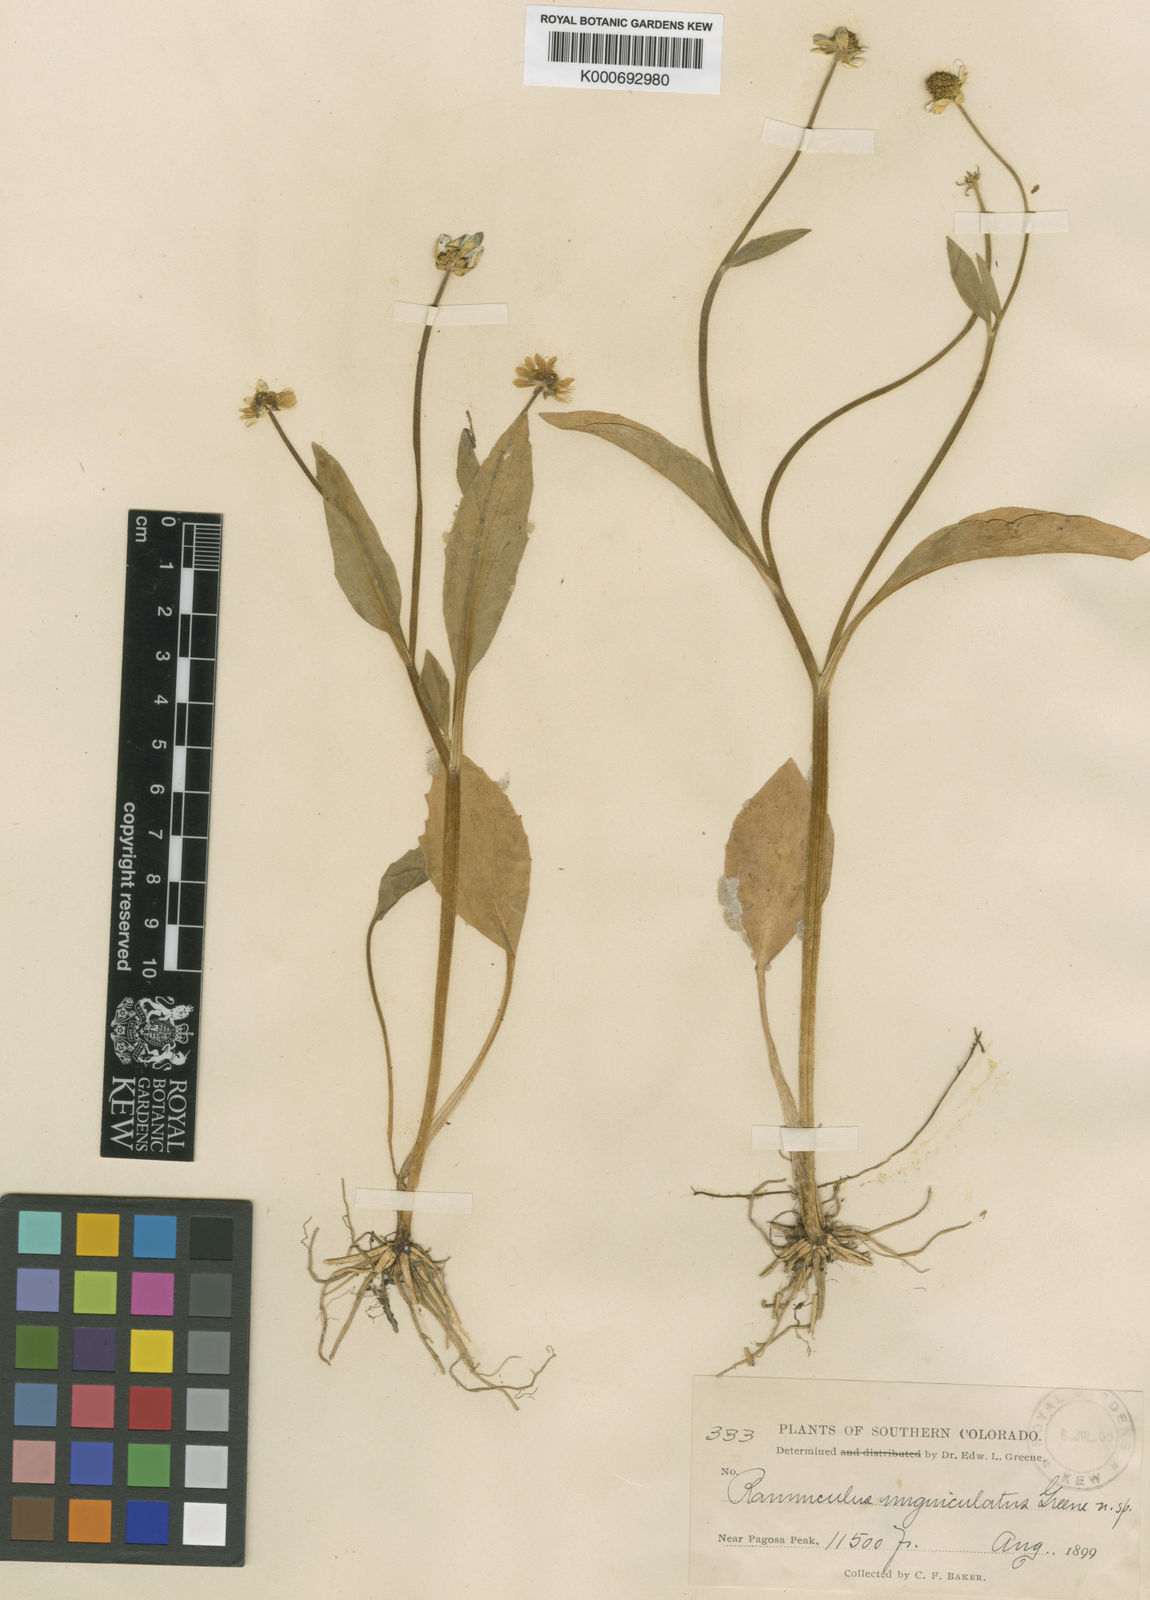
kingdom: Plantae
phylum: Tracheophyta
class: Magnoliopsida
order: Ranunculales
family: Ranunculaceae
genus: Ranunculus
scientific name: Ranunculus alismifolius
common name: Plantain-leaved buttercup
